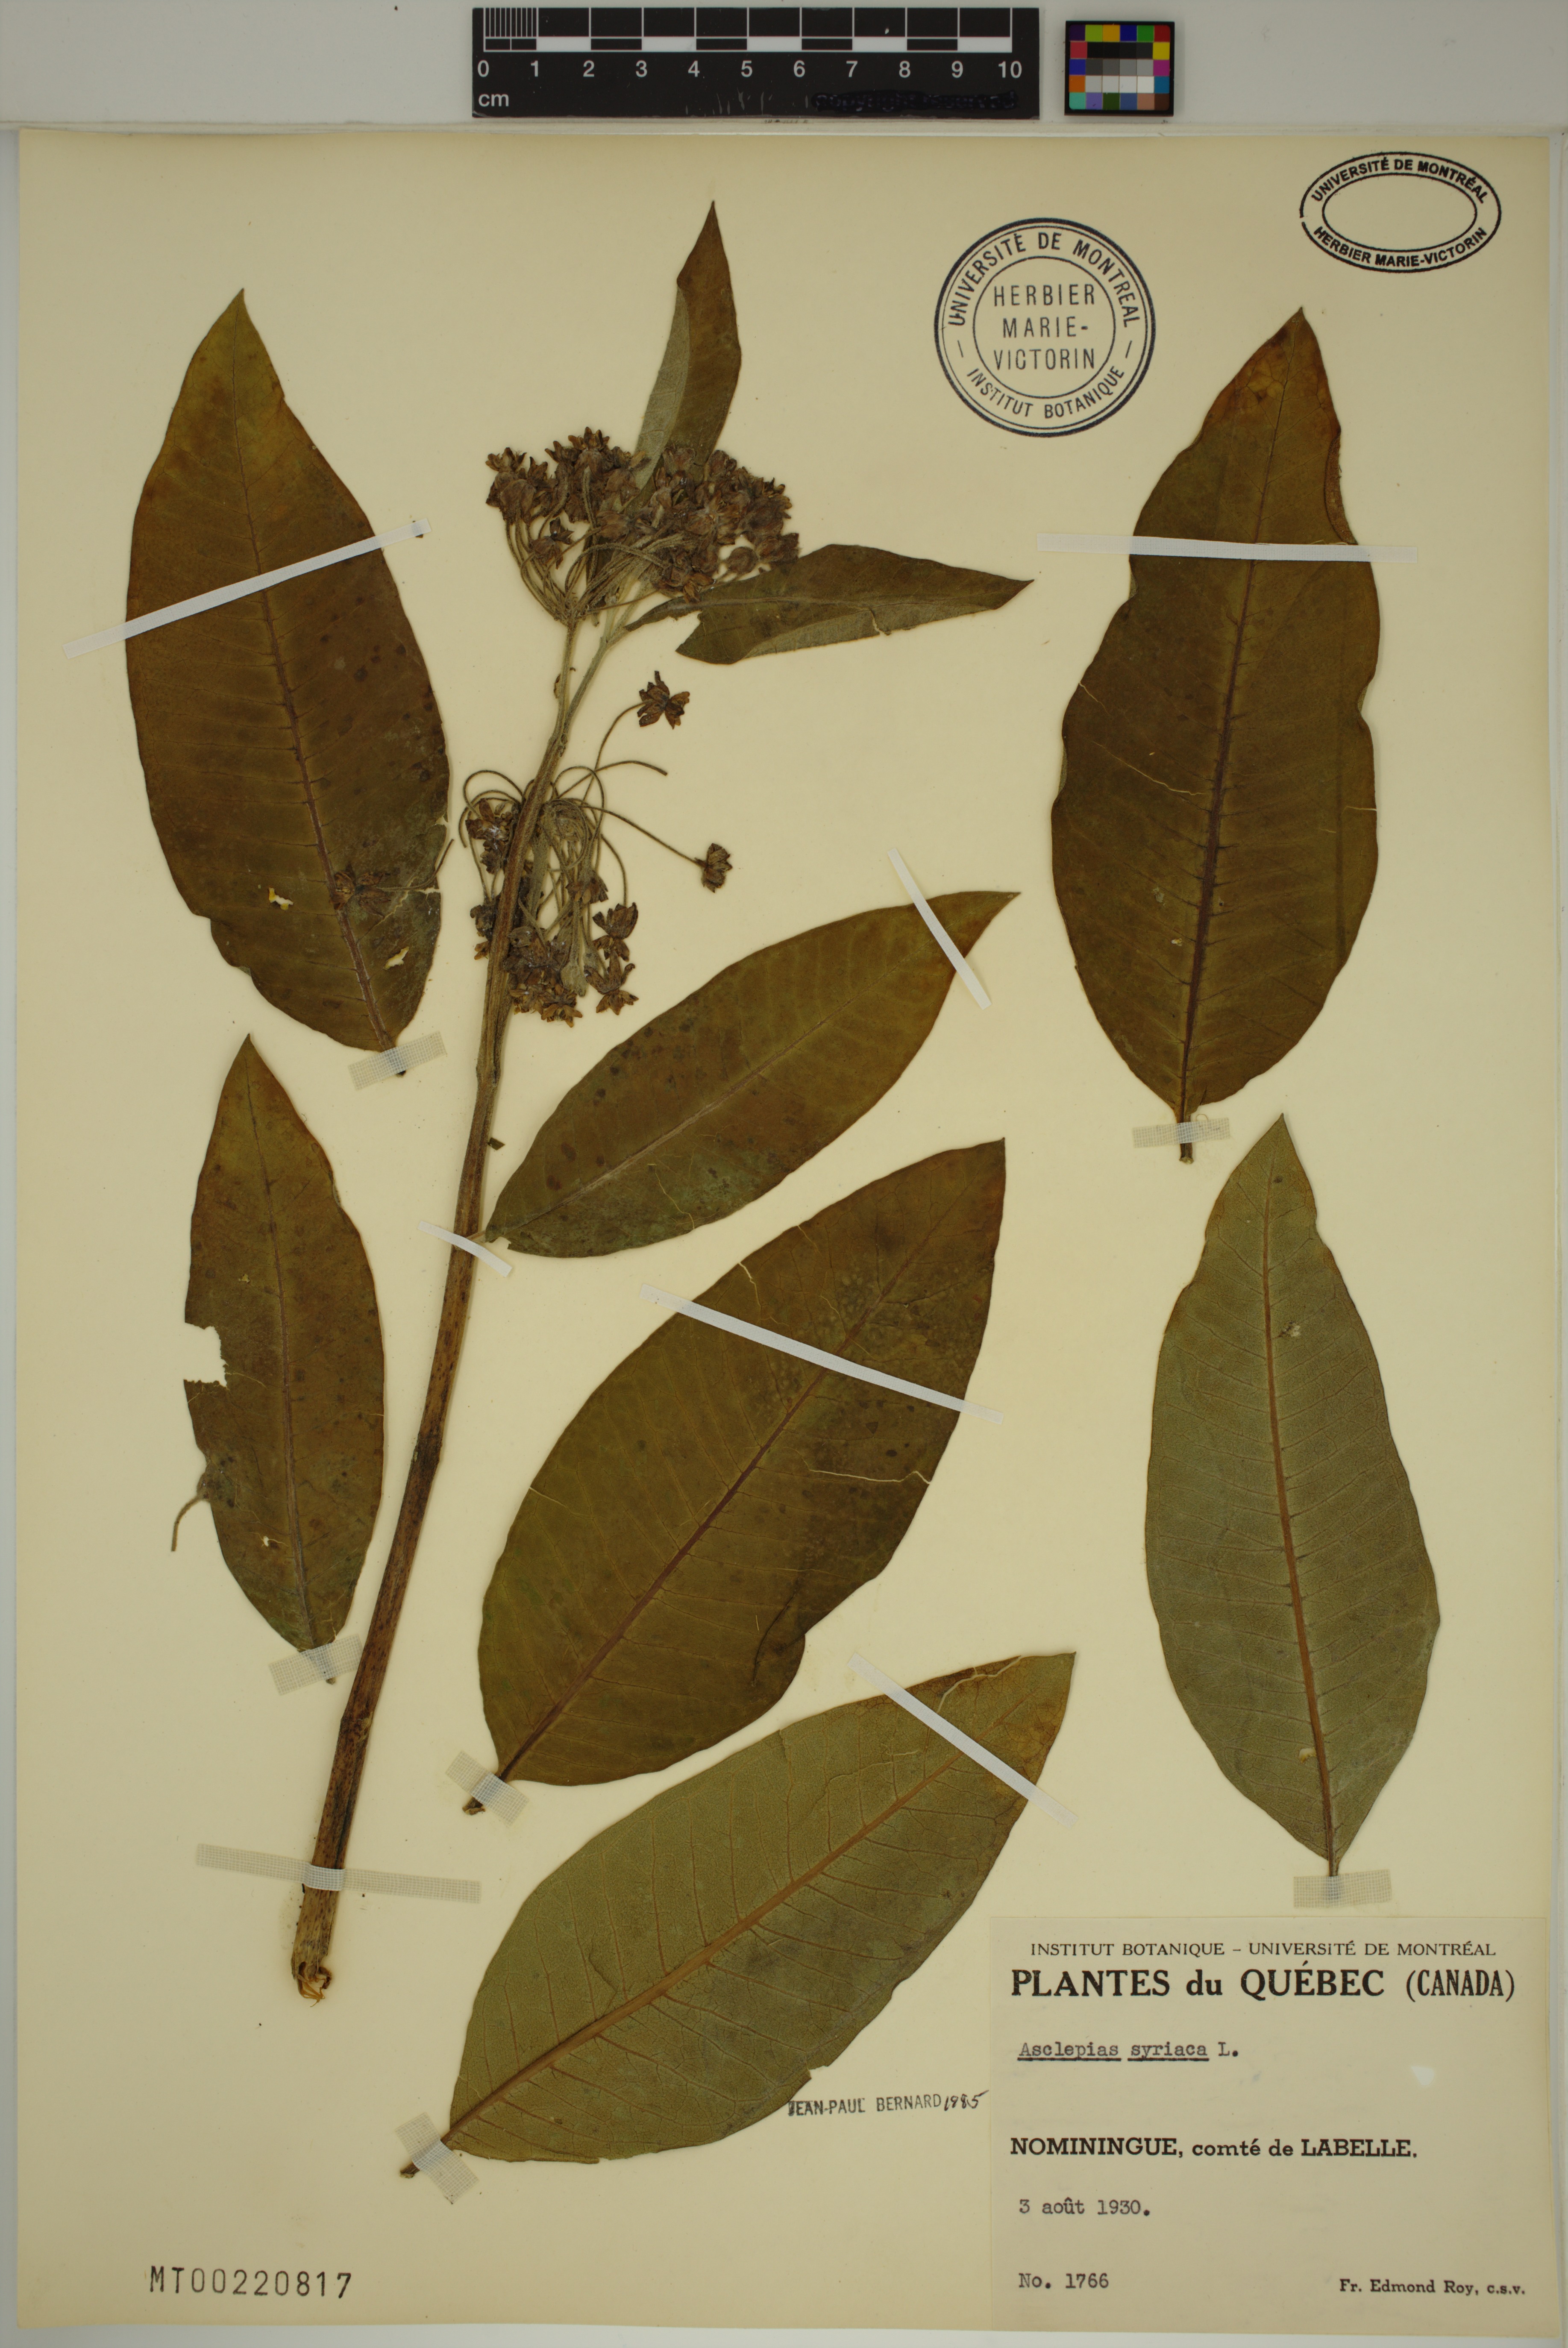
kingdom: Plantae
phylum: Tracheophyta
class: Magnoliopsida
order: Gentianales
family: Apocynaceae
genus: Asclepias
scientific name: Asclepias syriaca
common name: Common milkweed
